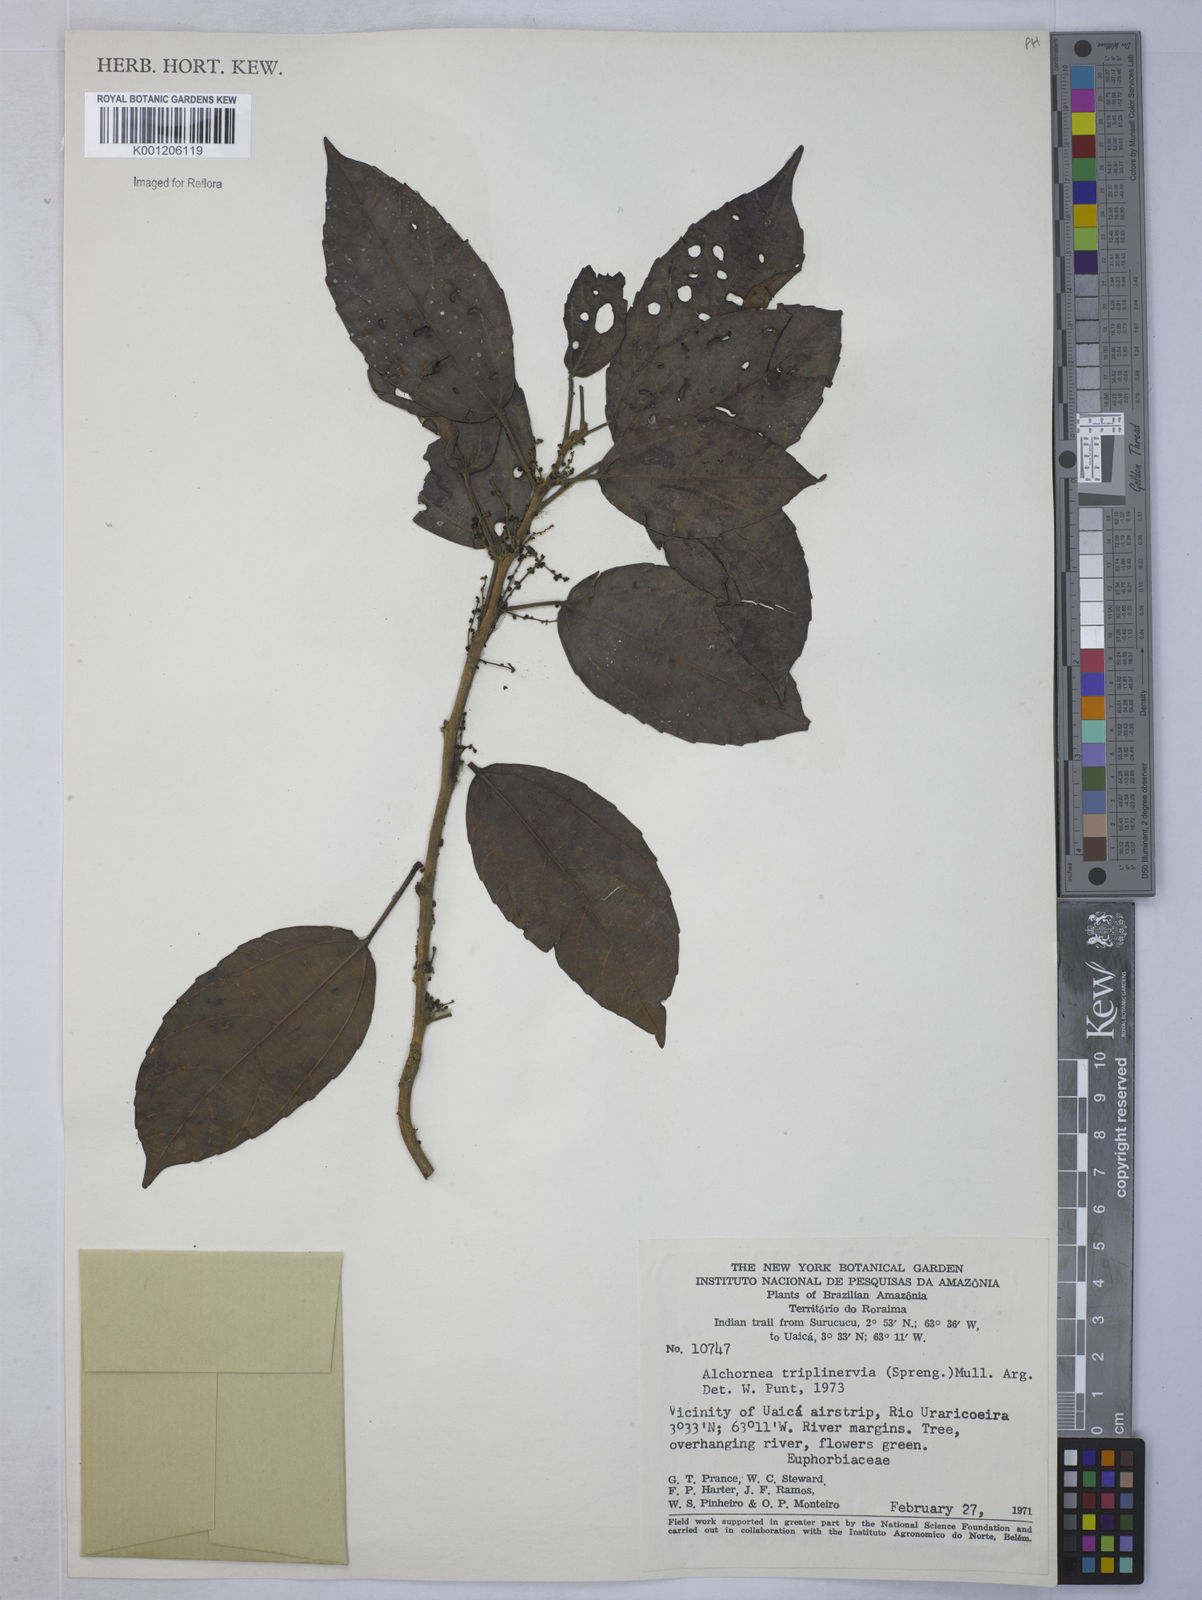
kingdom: Plantae
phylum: Tracheophyta
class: Magnoliopsida
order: Malpighiales
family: Euphorbiaceae
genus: Alchornea
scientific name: Alchornea
